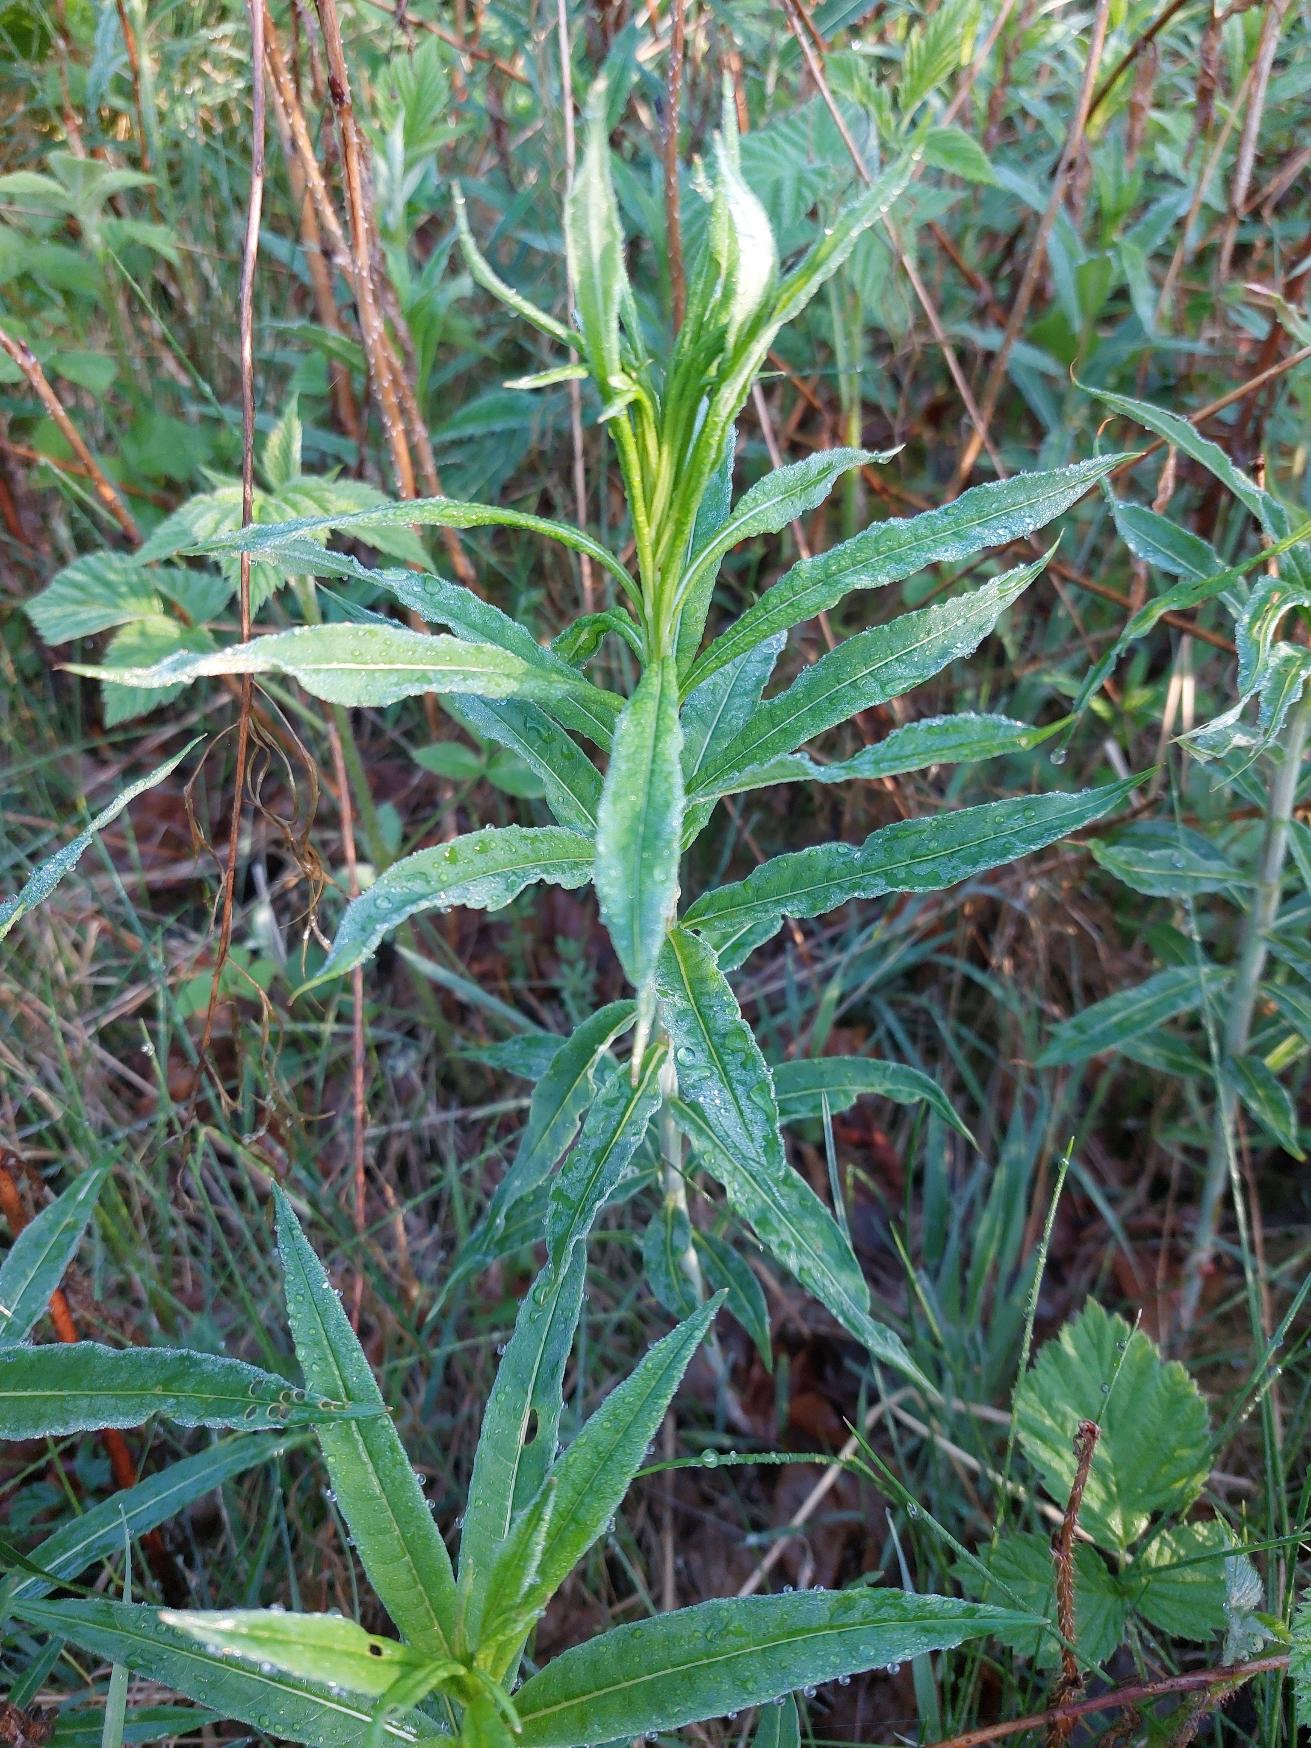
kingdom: Plantae
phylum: Tracheophyta
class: Magnoliopsida
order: Myrtales
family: Onagraceae
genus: Chamaenerion
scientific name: Chamaenerion angustifolium
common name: Gederams
